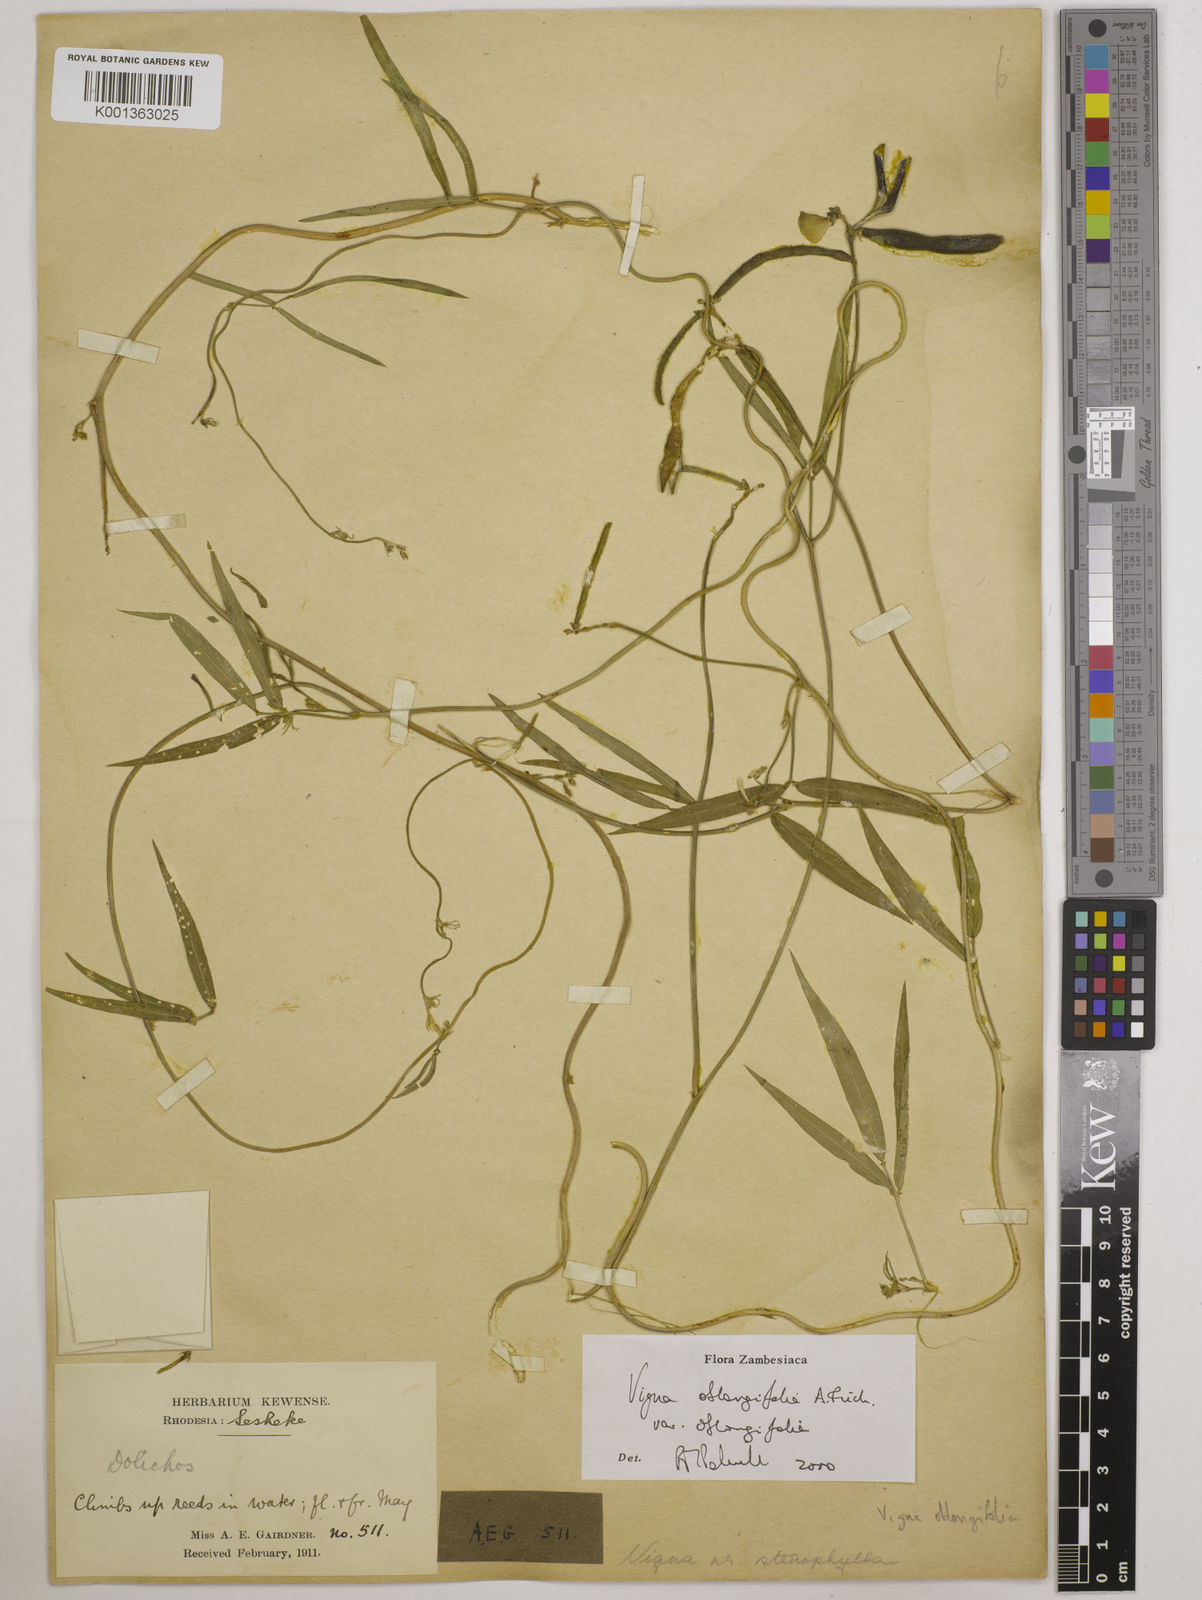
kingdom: Plantae
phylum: Tracheophyta
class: Magnoliopsida
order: Fabales
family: Fabaceae
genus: Vigna
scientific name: Vigna oblongifolia
